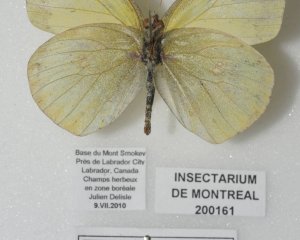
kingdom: Animalia
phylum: Arthropoda
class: Insecta
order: Lepidoptera
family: Pieridae
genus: Colias
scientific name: Colias philodice
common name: Clouded Sulphur
